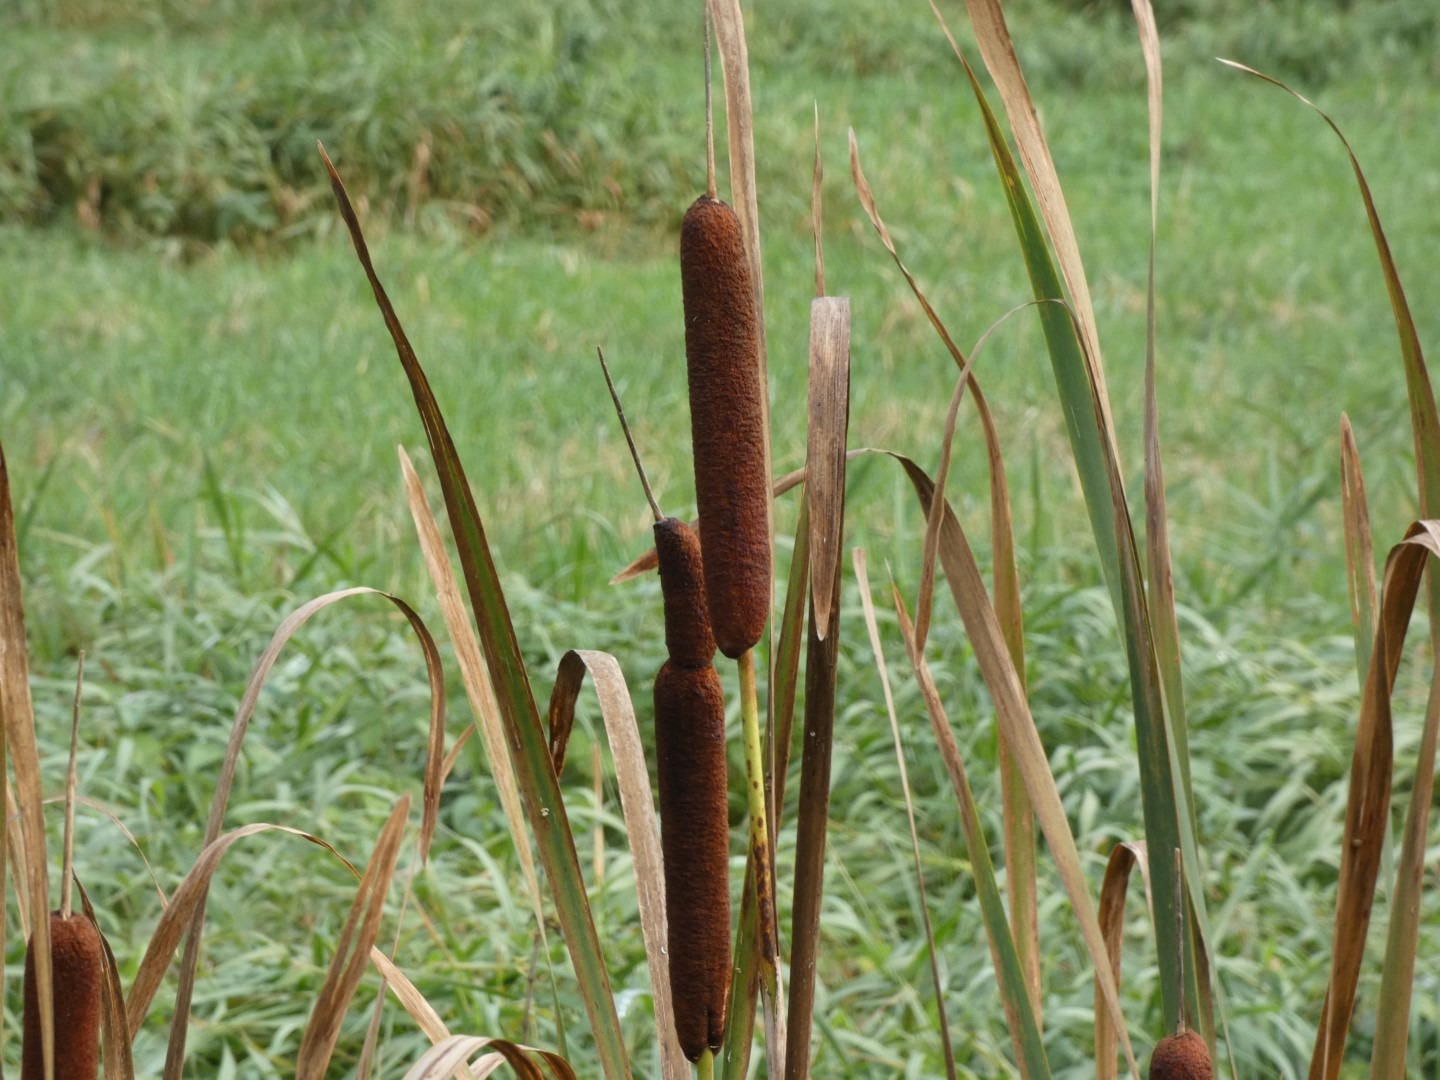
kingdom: Plantae
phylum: Tracheophyta
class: Liliopsida
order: Poales
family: Typhaceae
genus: Typha
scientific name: Typha latifolia
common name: Bredbladet dunhammer
